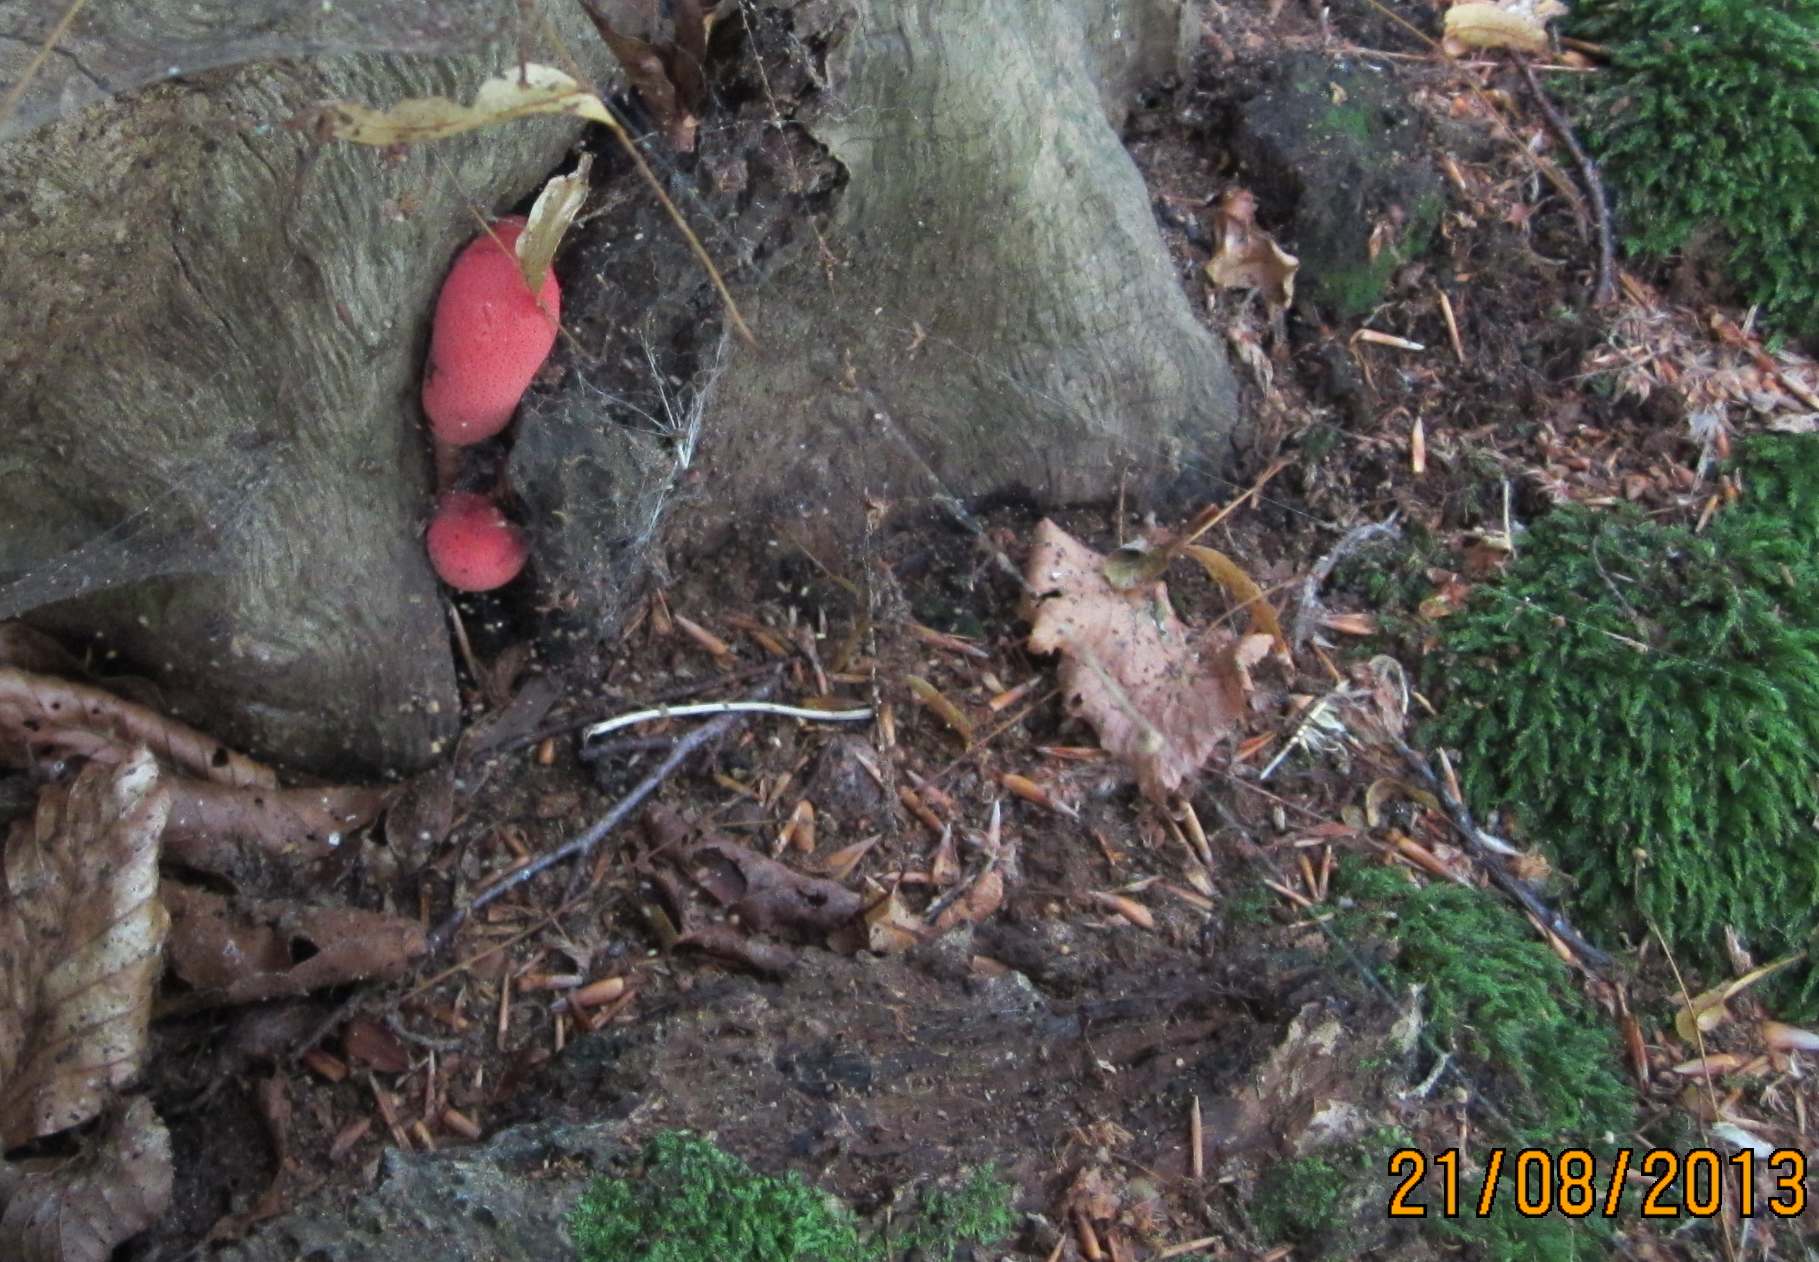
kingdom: Fungi
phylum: Basidiomycota
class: Agaricomycetes
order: Agaricales
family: Fistulinaceae
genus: Fistulina
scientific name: Fistulina hepatica
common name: oksetunge
